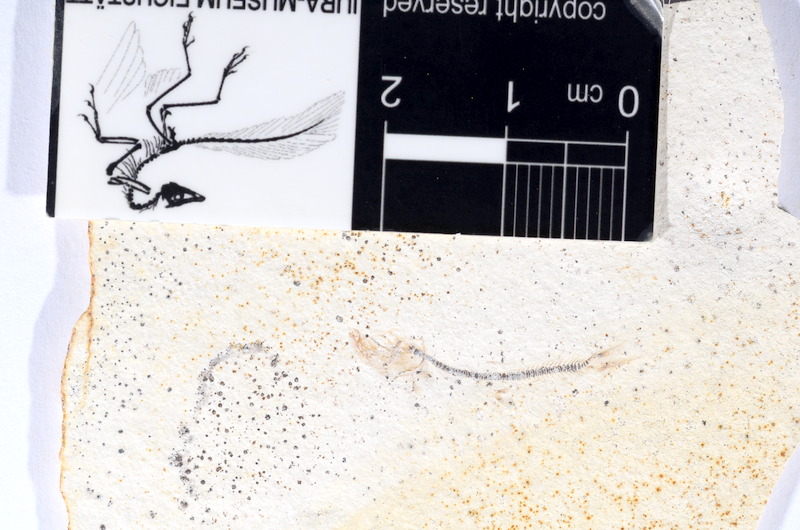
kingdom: Animalia
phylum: Chordata
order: Salmoniformes
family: Orthogonikleithridae
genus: Orthogonikleithrus
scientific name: Orthogonikleithrus hoelli
